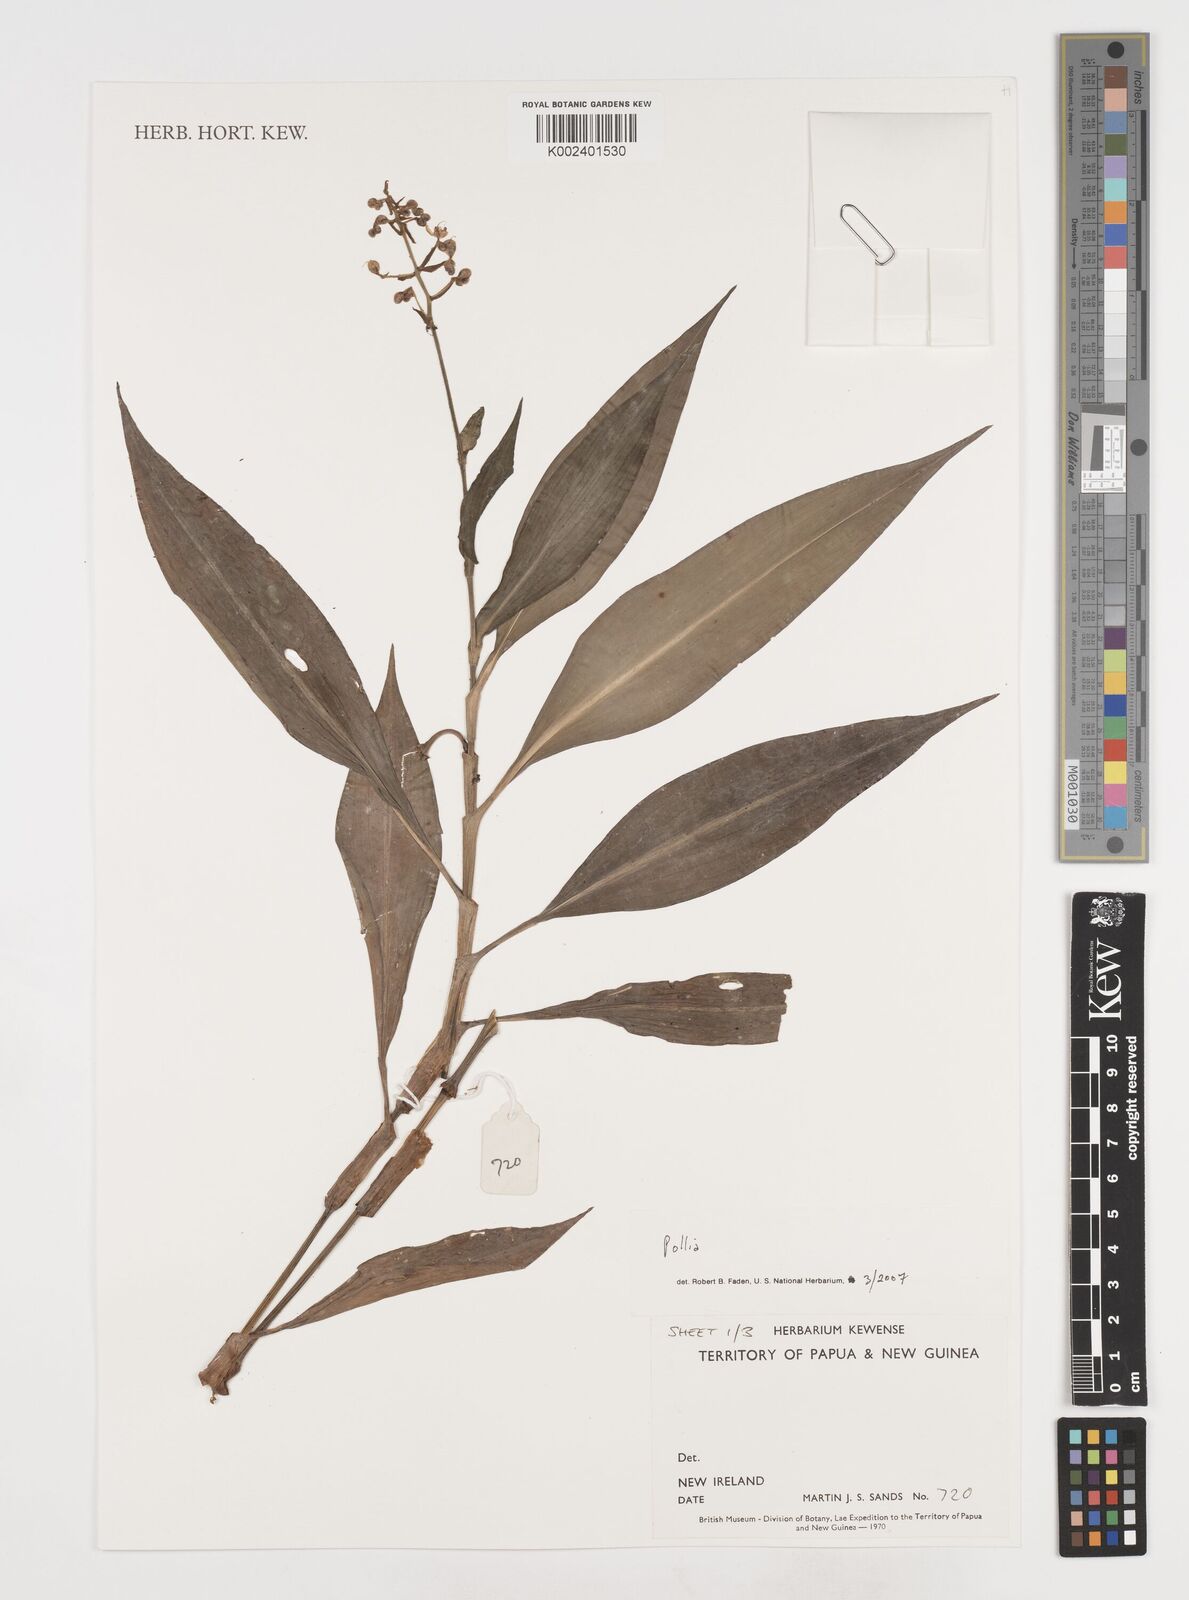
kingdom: Plantae
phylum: Tracheophyta
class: Liliopsida
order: Commelinales
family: Commelinaceae
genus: Pollia
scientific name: Pollia
